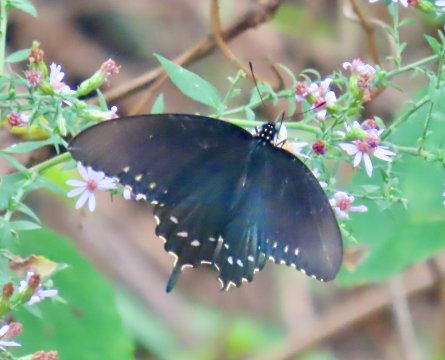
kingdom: Animalia
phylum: Arthropoda
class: Insecta
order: Lepidoptera
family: Papilionidae
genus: Battus
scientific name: Battus philenor
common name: Pipevine Swallowtail
